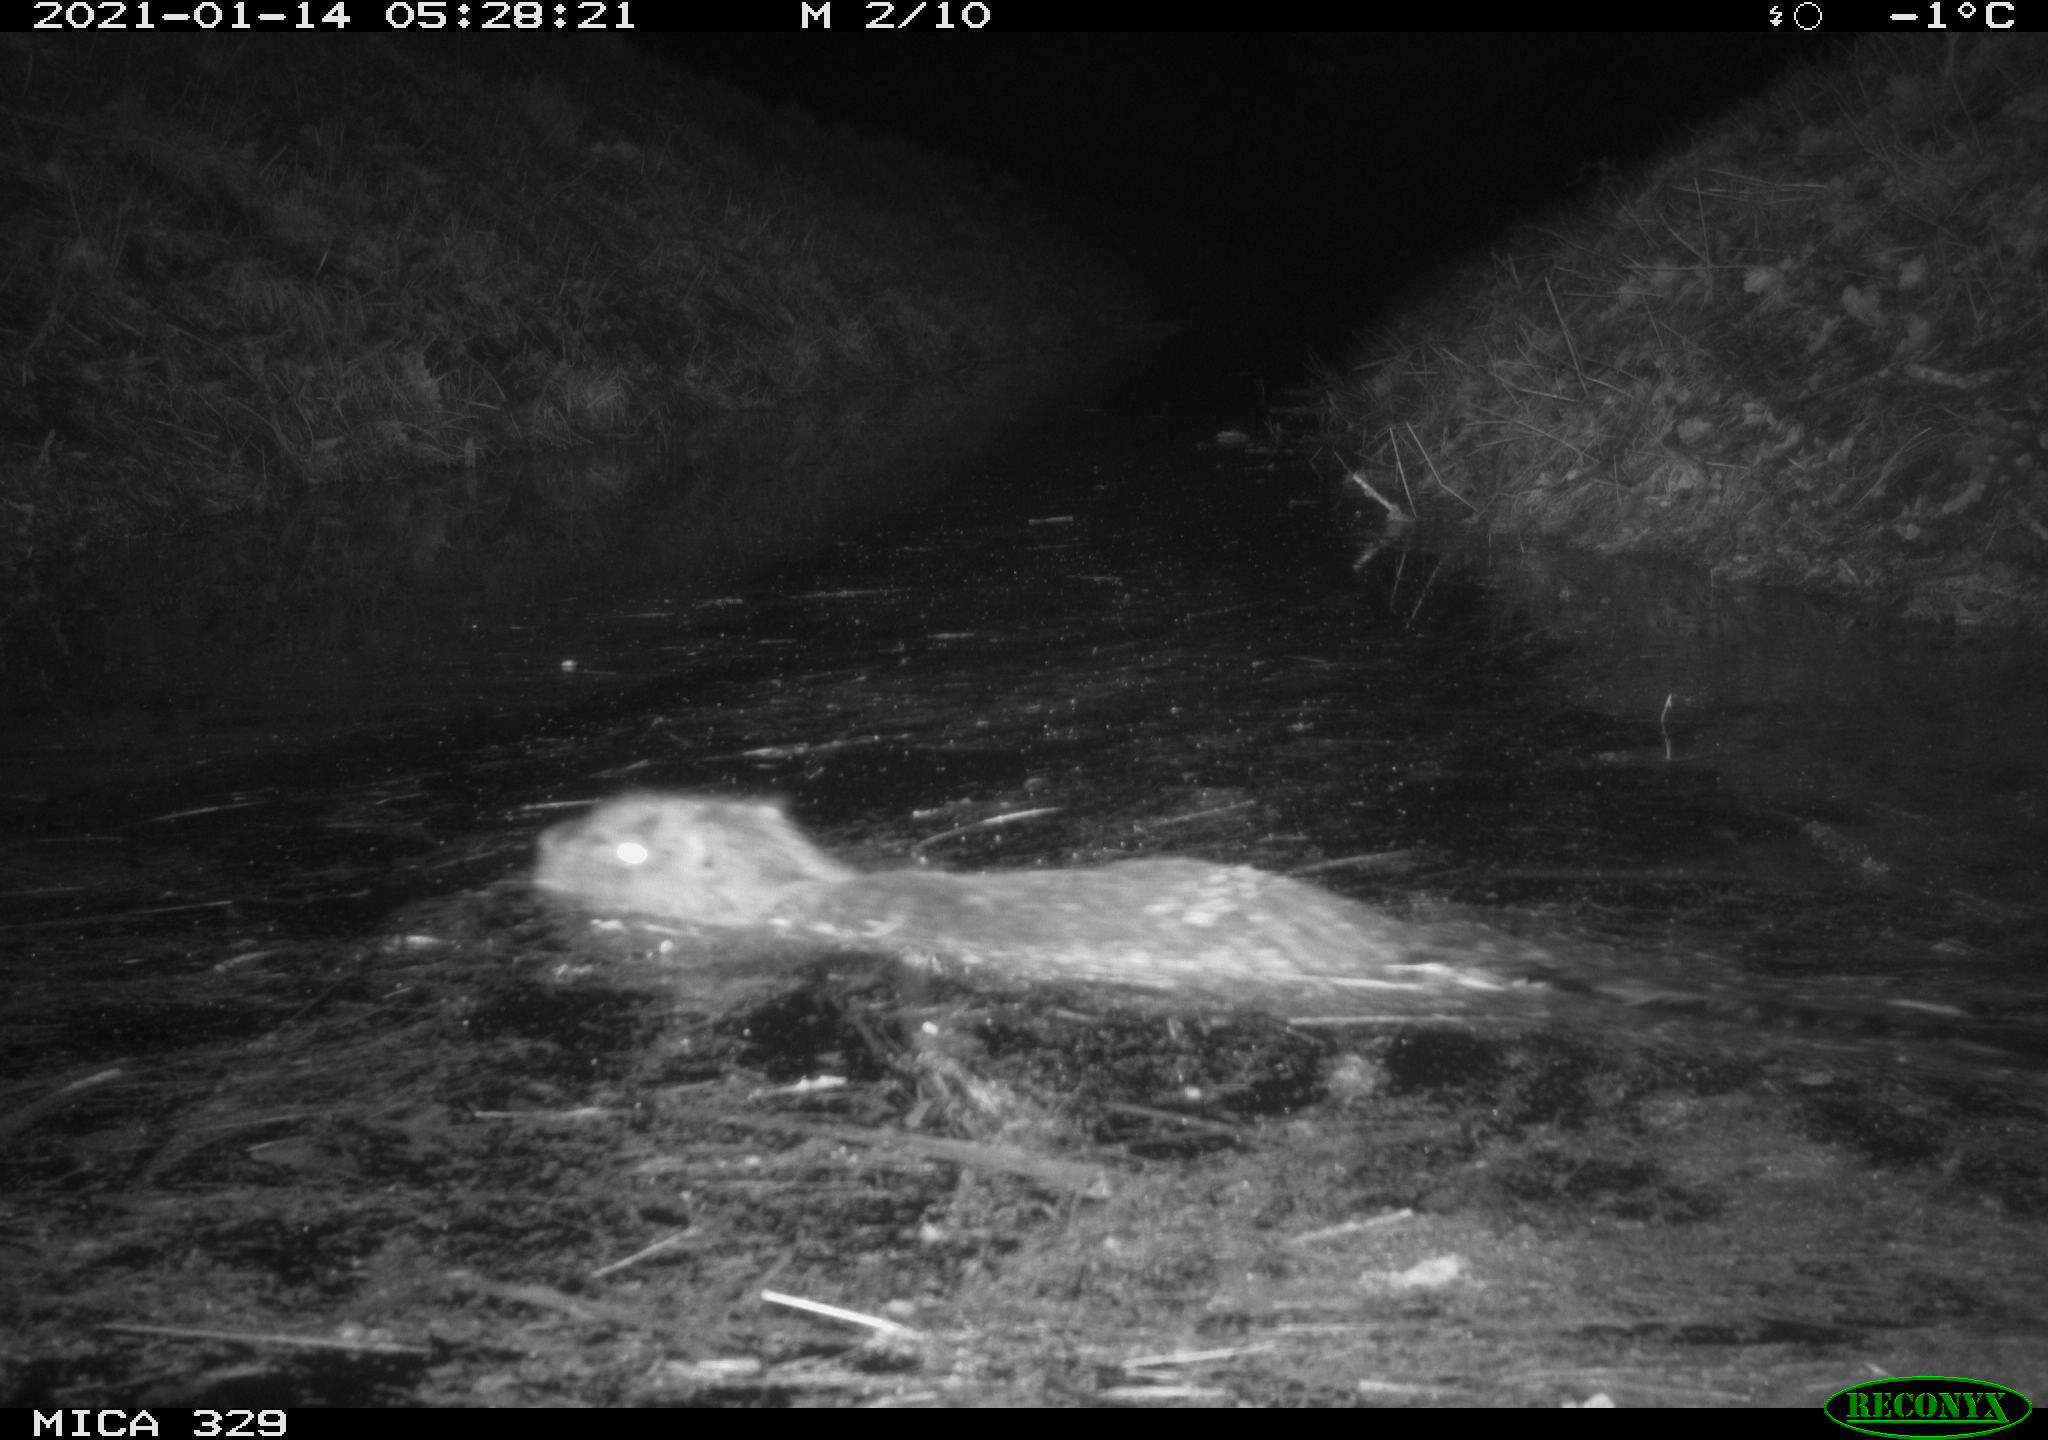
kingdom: Animalia
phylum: Chordata
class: Mammalia
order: Rodentia
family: Myocastoridae
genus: Myocastor
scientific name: Myocastor coypus
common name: Coypu
